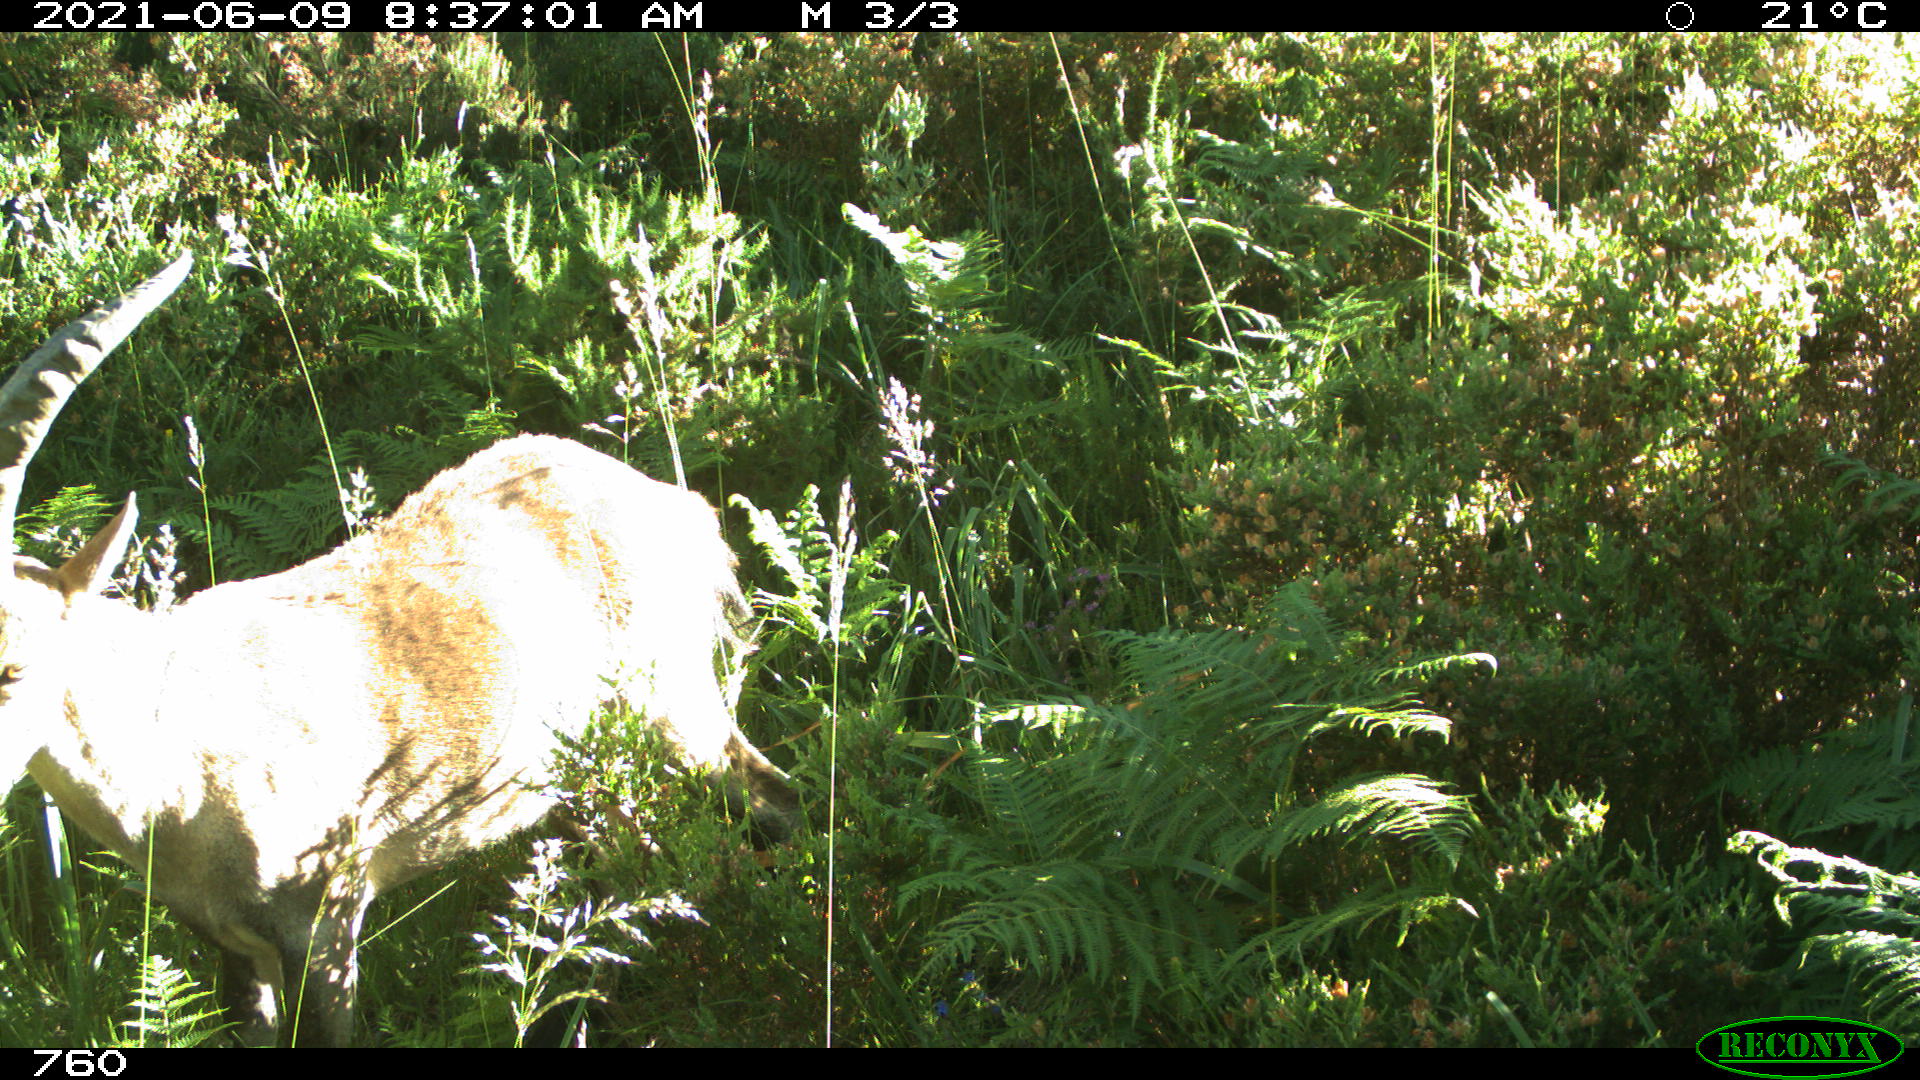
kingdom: Animalia
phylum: Chordata
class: Mammalia
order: Artiodactyla
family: Bovidae
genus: Capra
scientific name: Capra pyrenaica
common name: Spanish ibex
